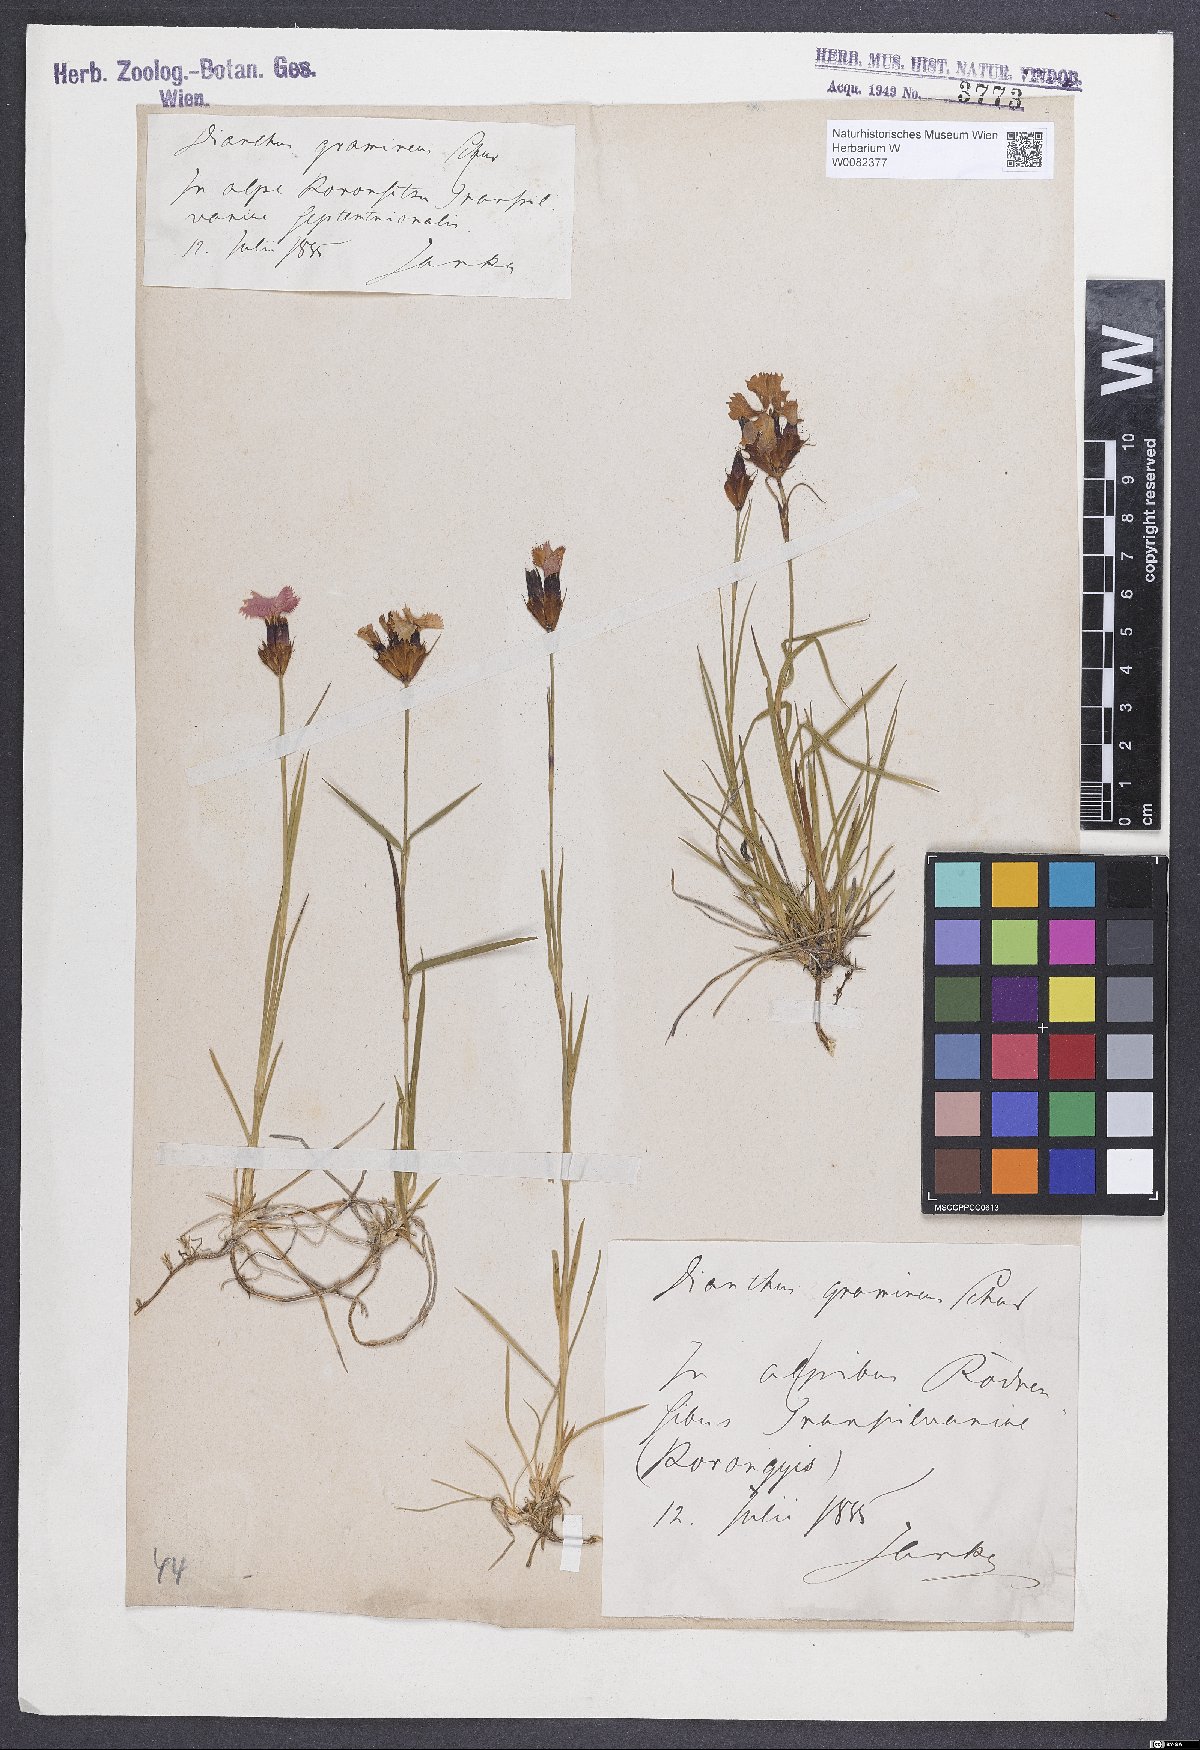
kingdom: Plantae
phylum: Tracheophyta
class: Magnoliopsida
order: Caryophyllales
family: Caryophyllaceae
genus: Dianthus
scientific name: Dianthus carthusianorum
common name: Carthusian pink
